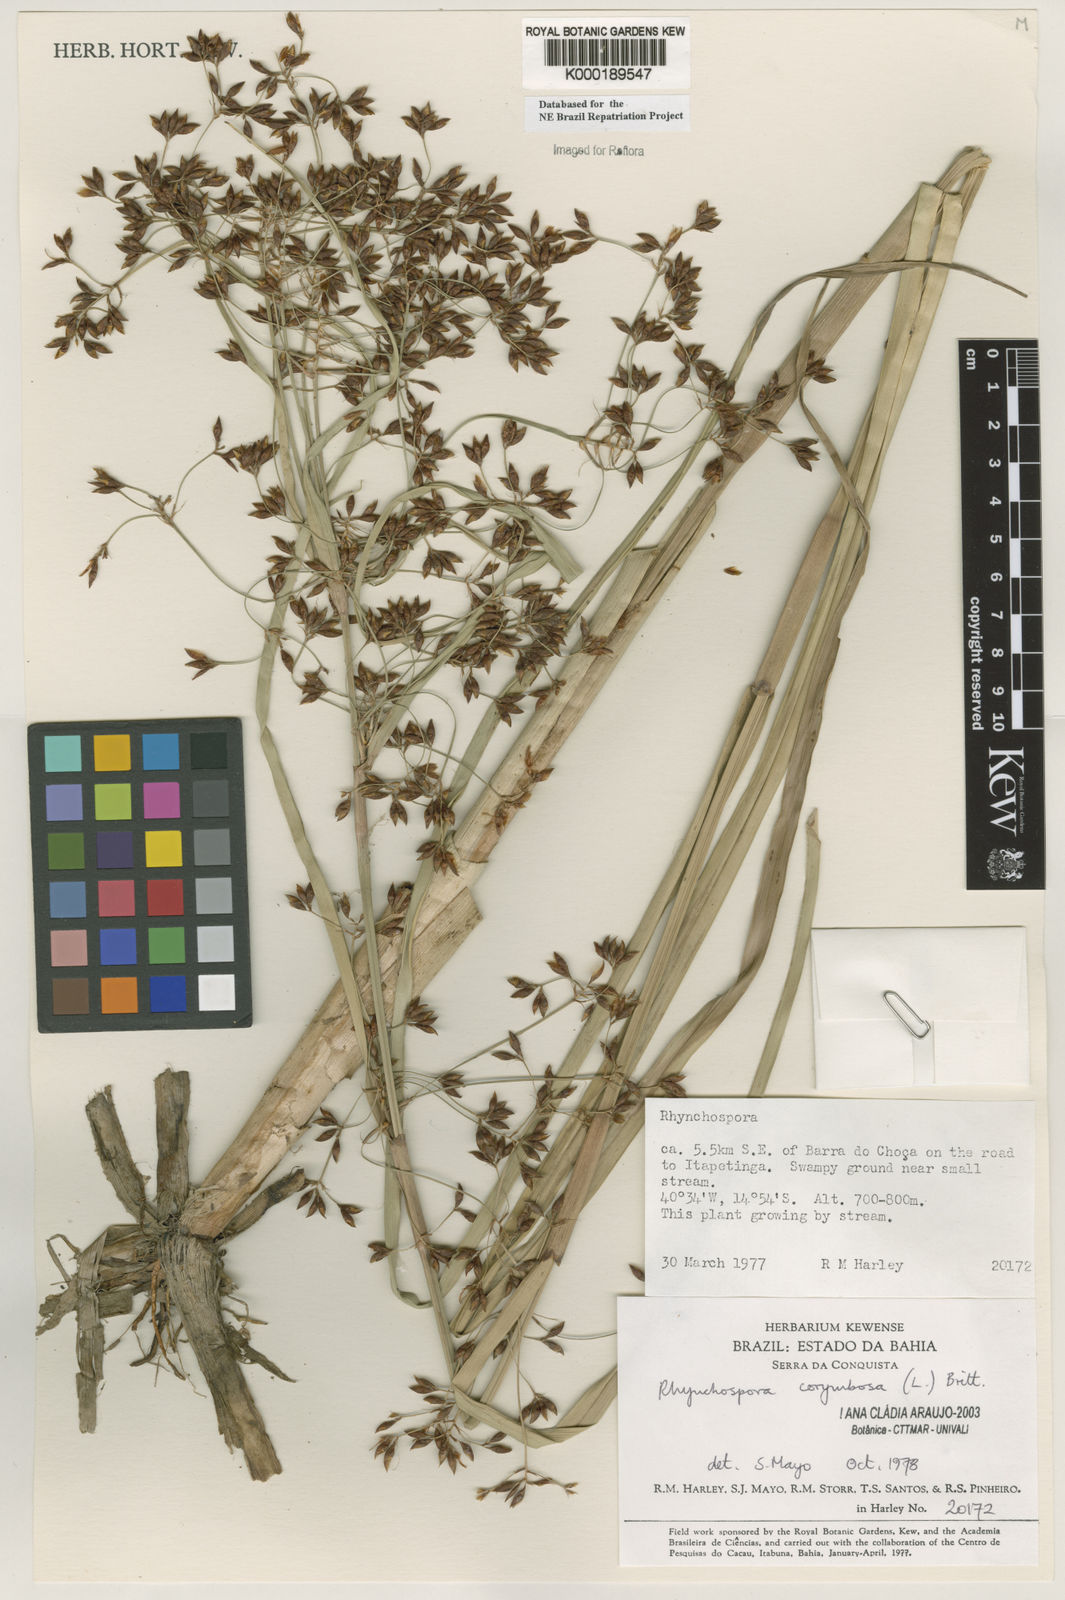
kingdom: Plantae
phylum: Tracheophyta
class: Liliopsida
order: Poales
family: Cyperaceae
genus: Rhynchospora
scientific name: Rhynchospora corymbosa
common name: Golden beak sedge
